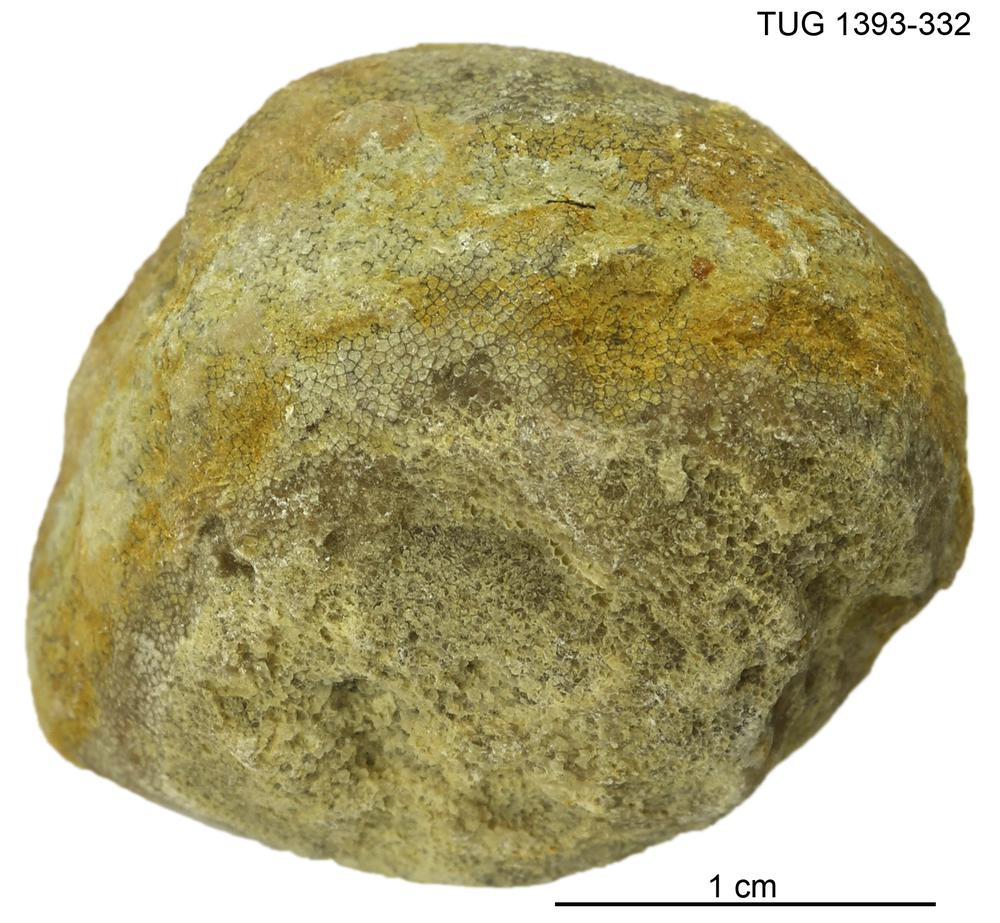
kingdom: Animalia
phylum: Bryozoa
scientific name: Bryozoa
